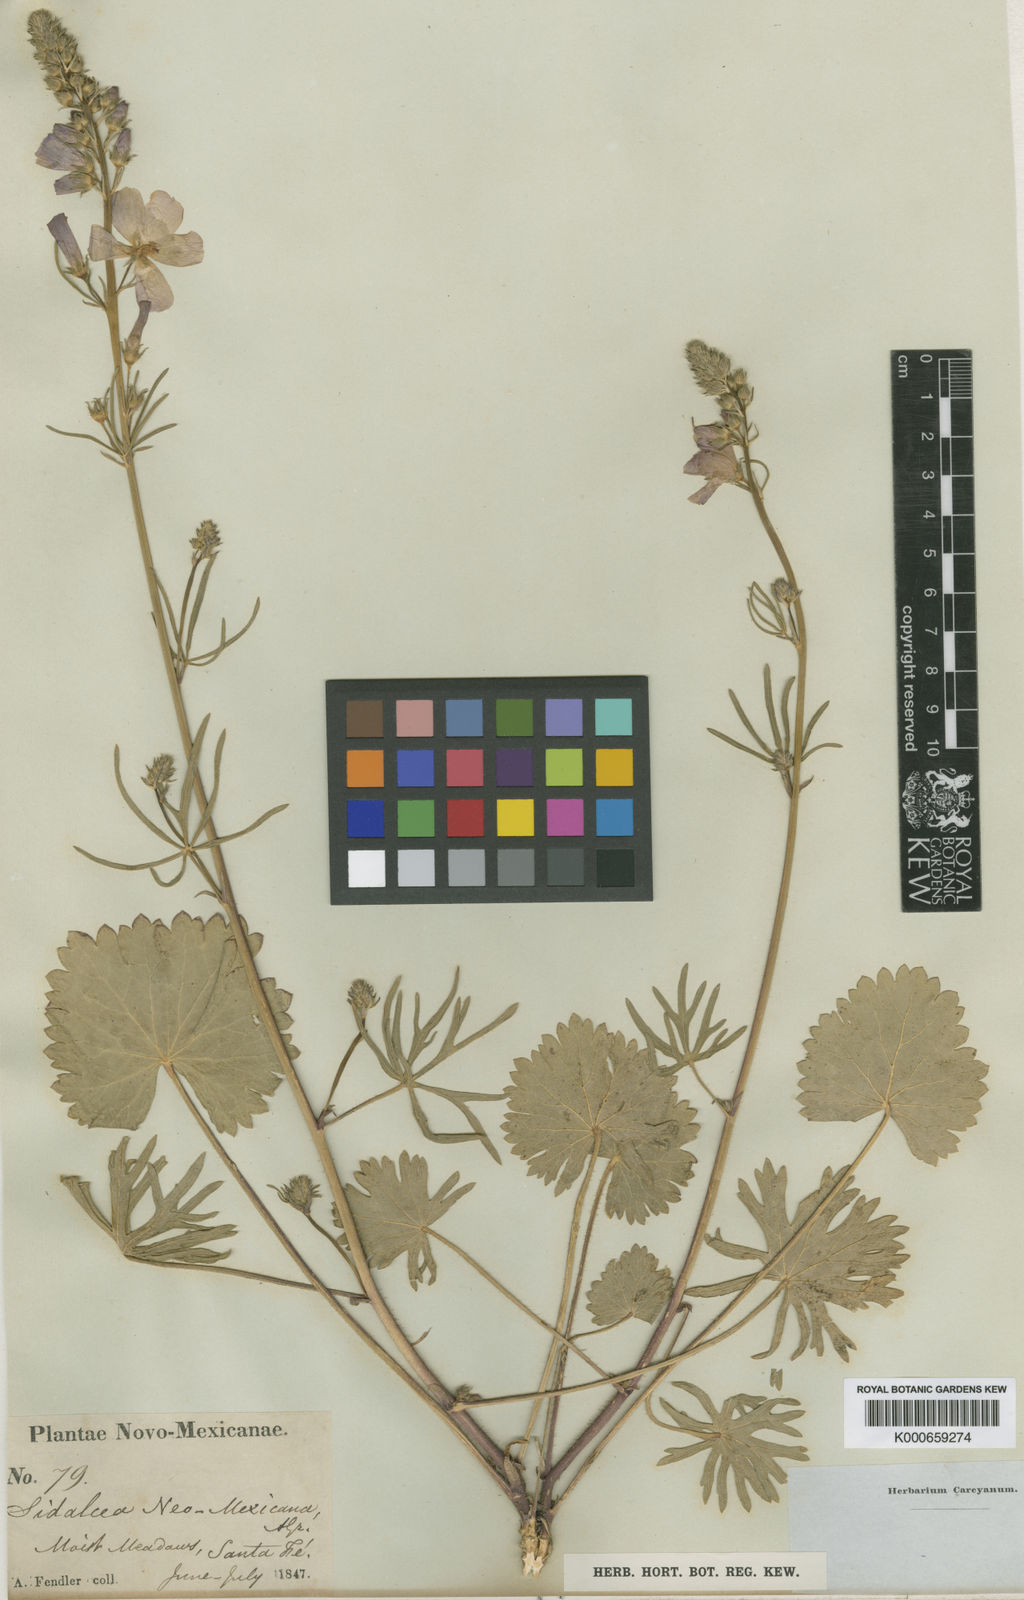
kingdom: Plantae
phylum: Tracheophyta
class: Magnoliopsida
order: Malvales
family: Malvaceae
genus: Sidalcea
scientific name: Sidalcea neomexicana
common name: New mexico checker
